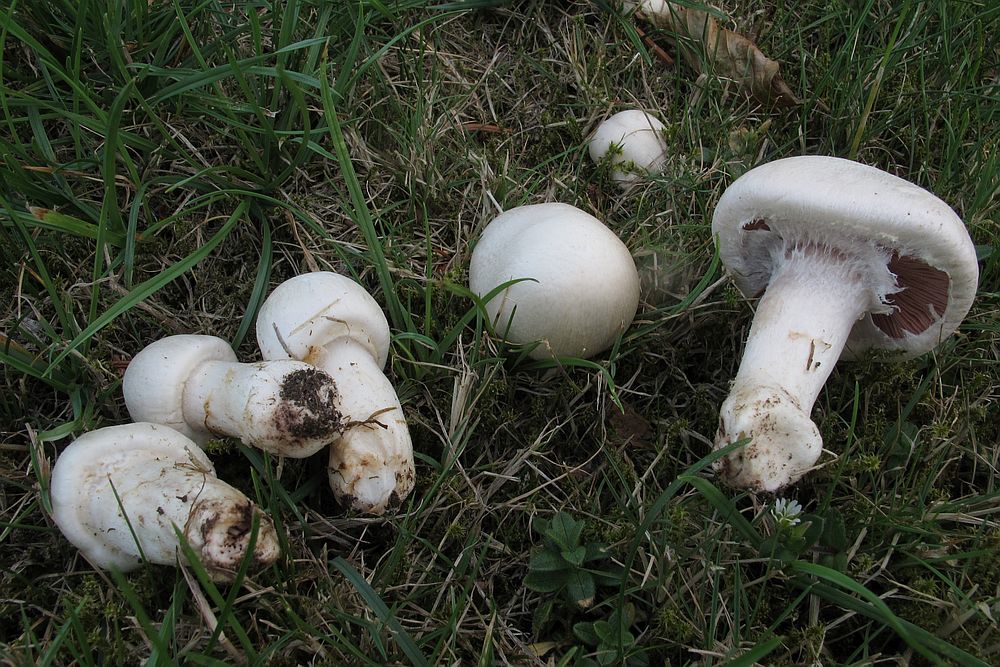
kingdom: Fungi
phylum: Basidiomycota
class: Agaricomycetes
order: Agaricales
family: Agaricaceae
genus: Agaricus
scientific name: Agaricus campestris
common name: mark-champignon
